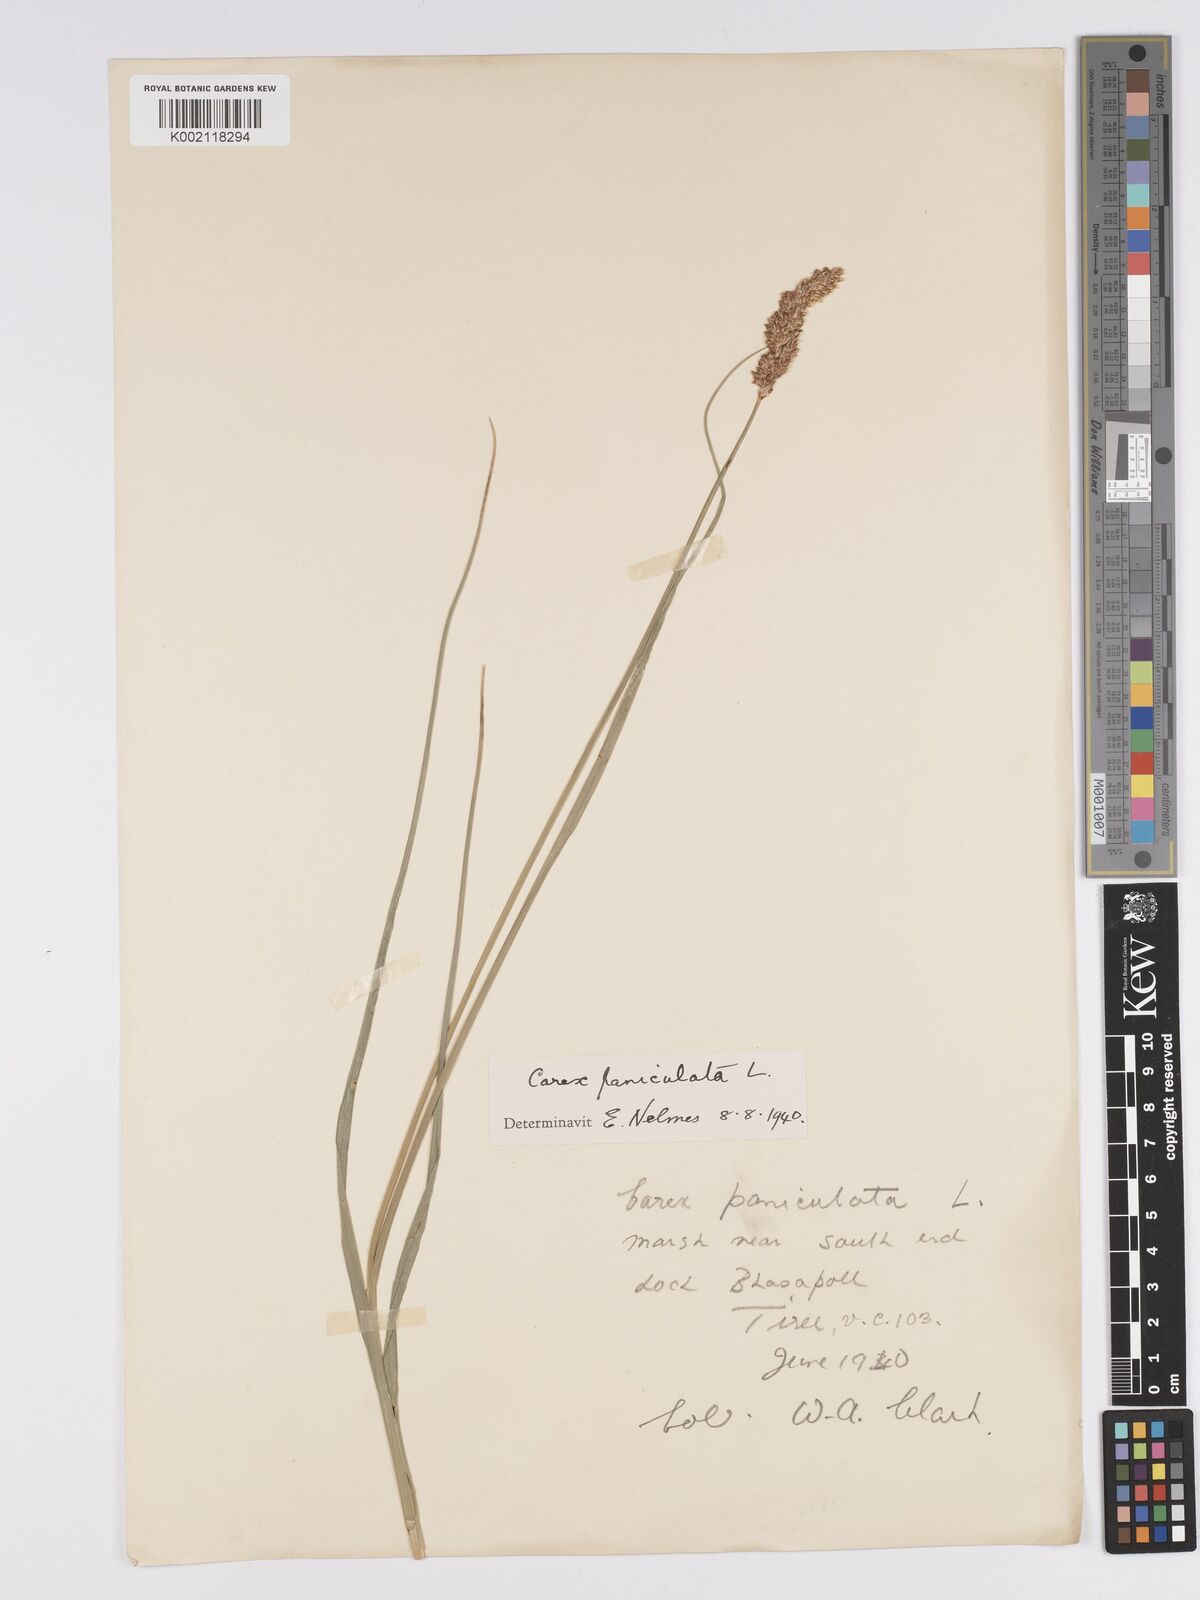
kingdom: Plantae
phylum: Tracheophyta
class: Liliopsida
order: Poales
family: Cyperaceae
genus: Carex
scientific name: Carex paniculata
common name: Greater tussock-sedge
